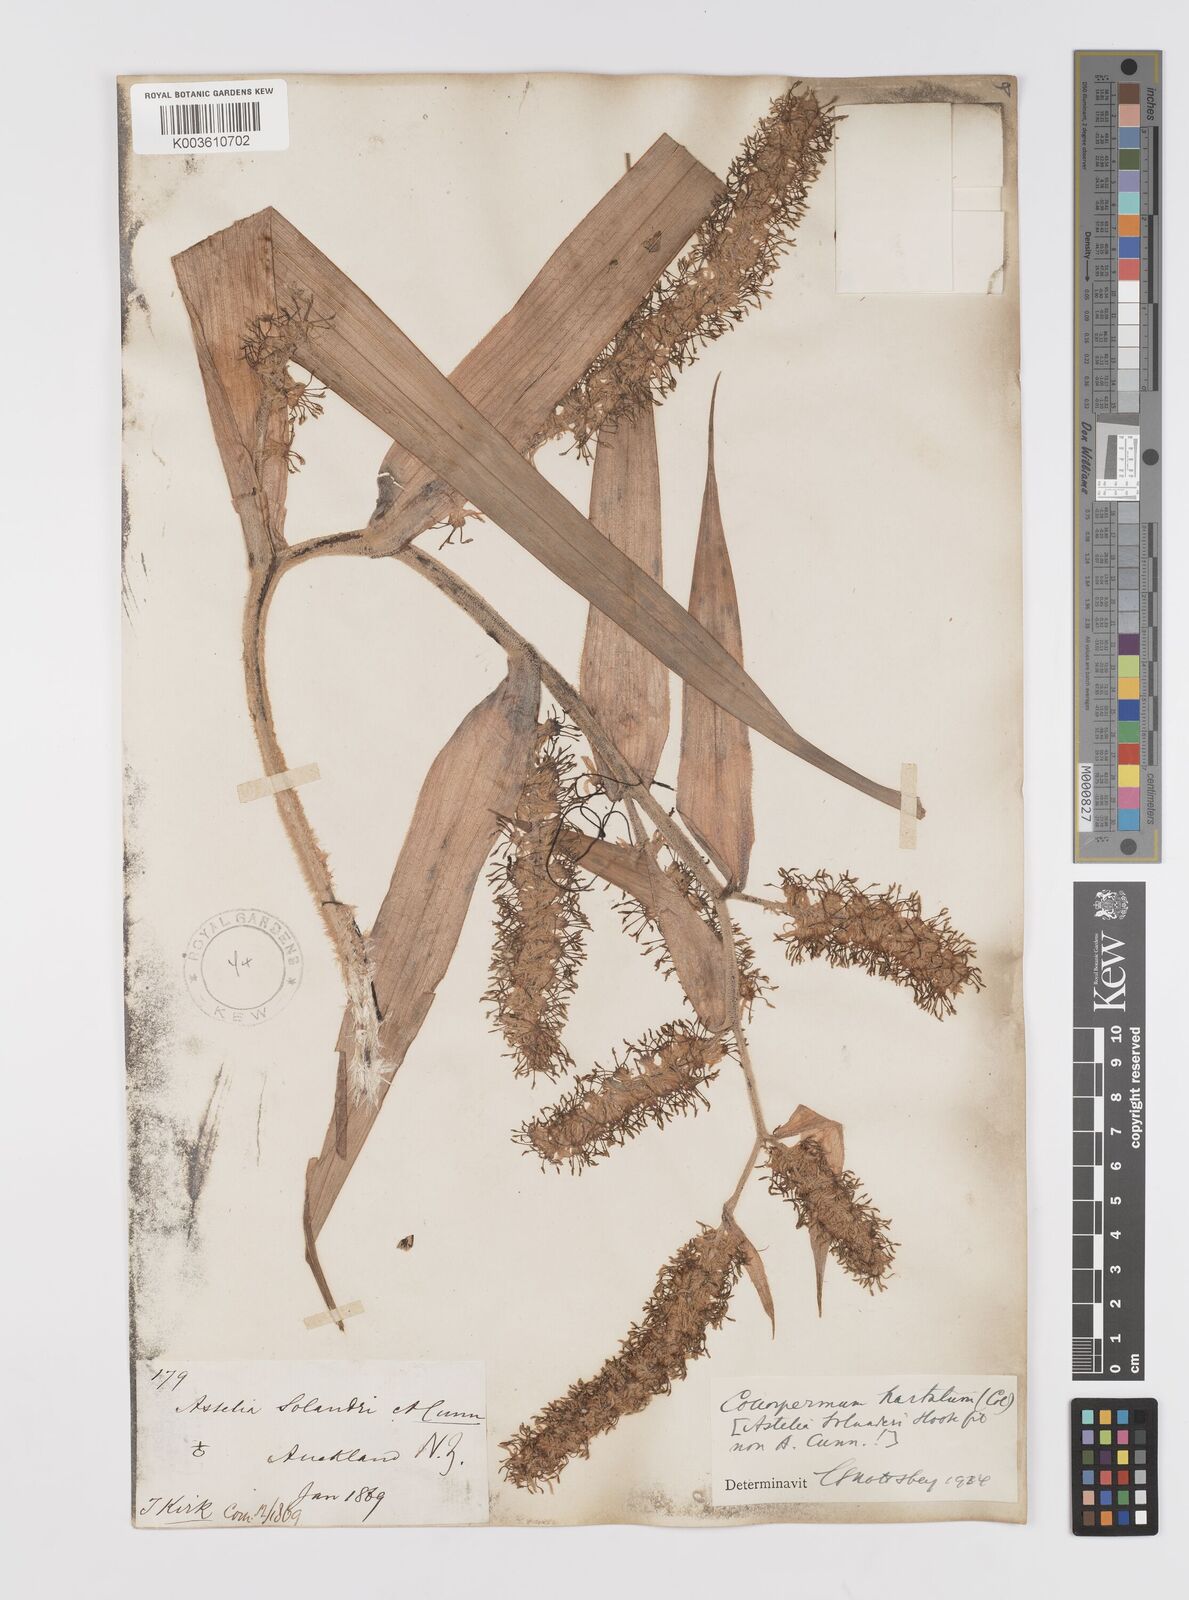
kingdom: Plantae
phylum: Tracheophyta
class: Liliopsida
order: Asparagales
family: Asteliaceae
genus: Astelia
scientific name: Astelia hastata
